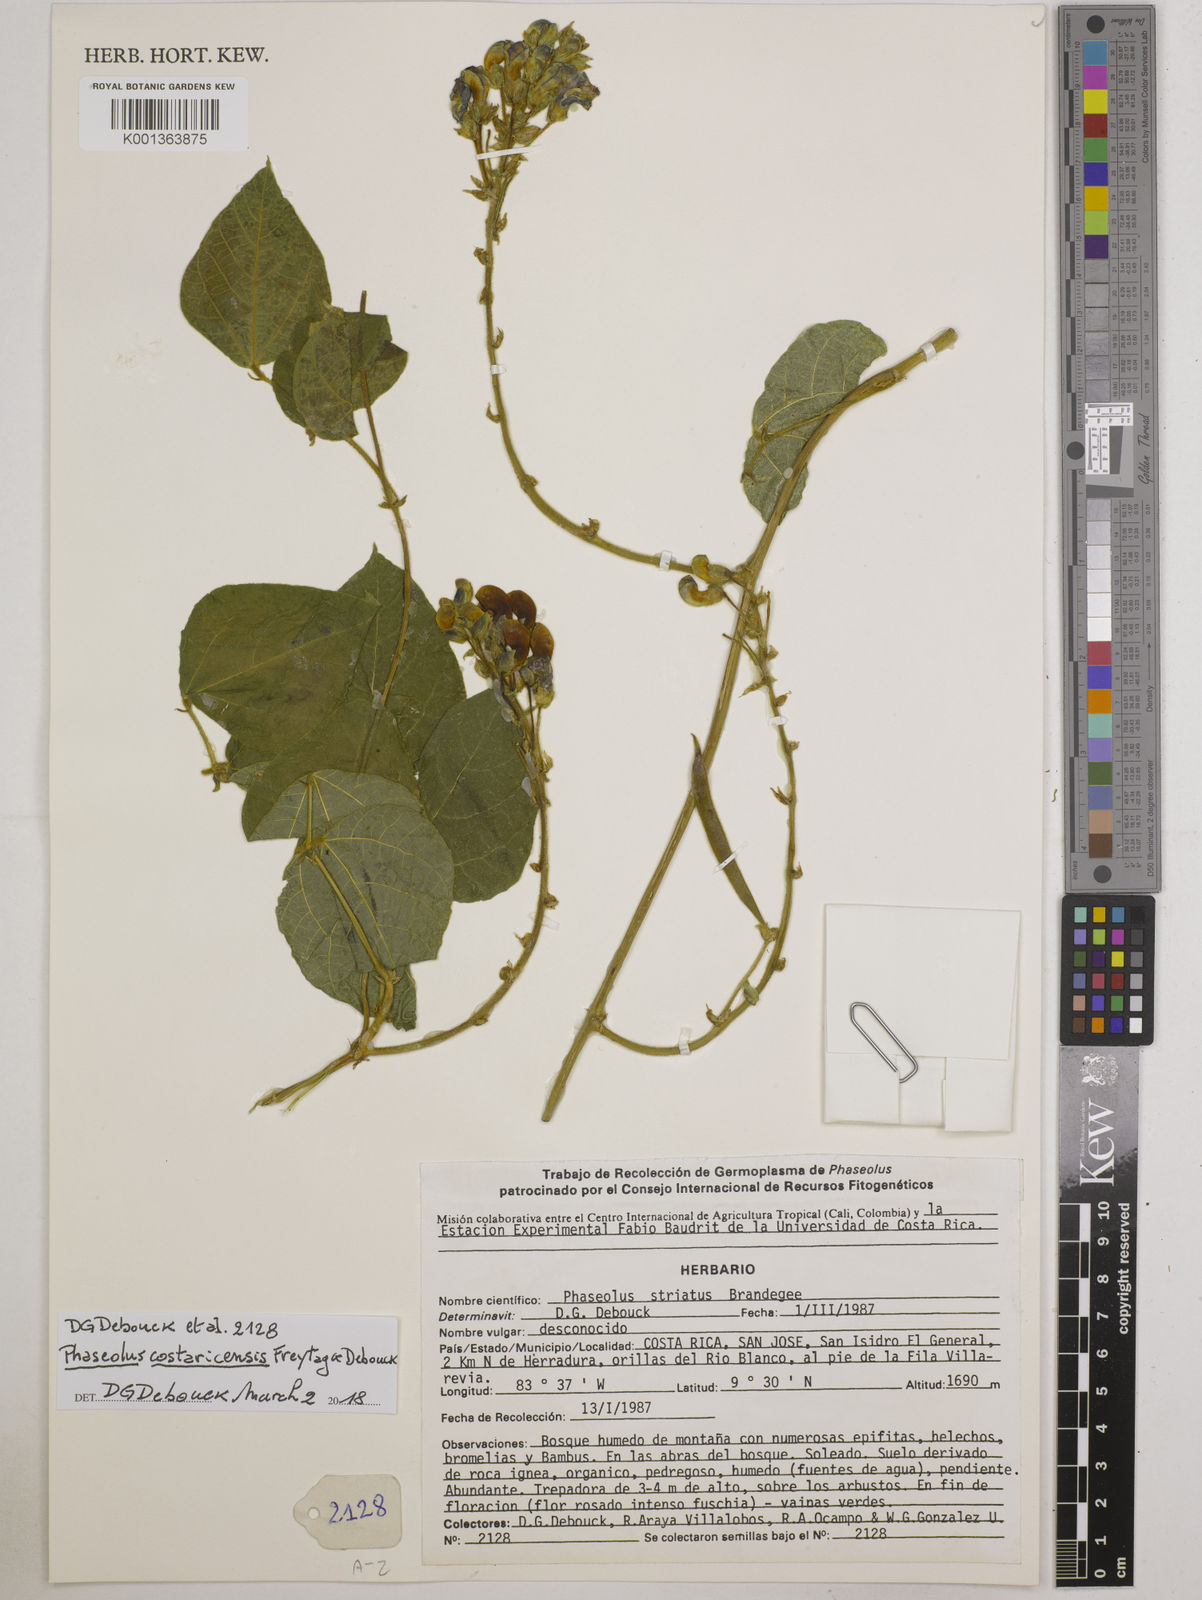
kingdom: Plantae
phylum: Tracheophyta
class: Magnoliopsida
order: Fabales
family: Fabaceae
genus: Phaseolus
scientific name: Phaseolus costaricensis
